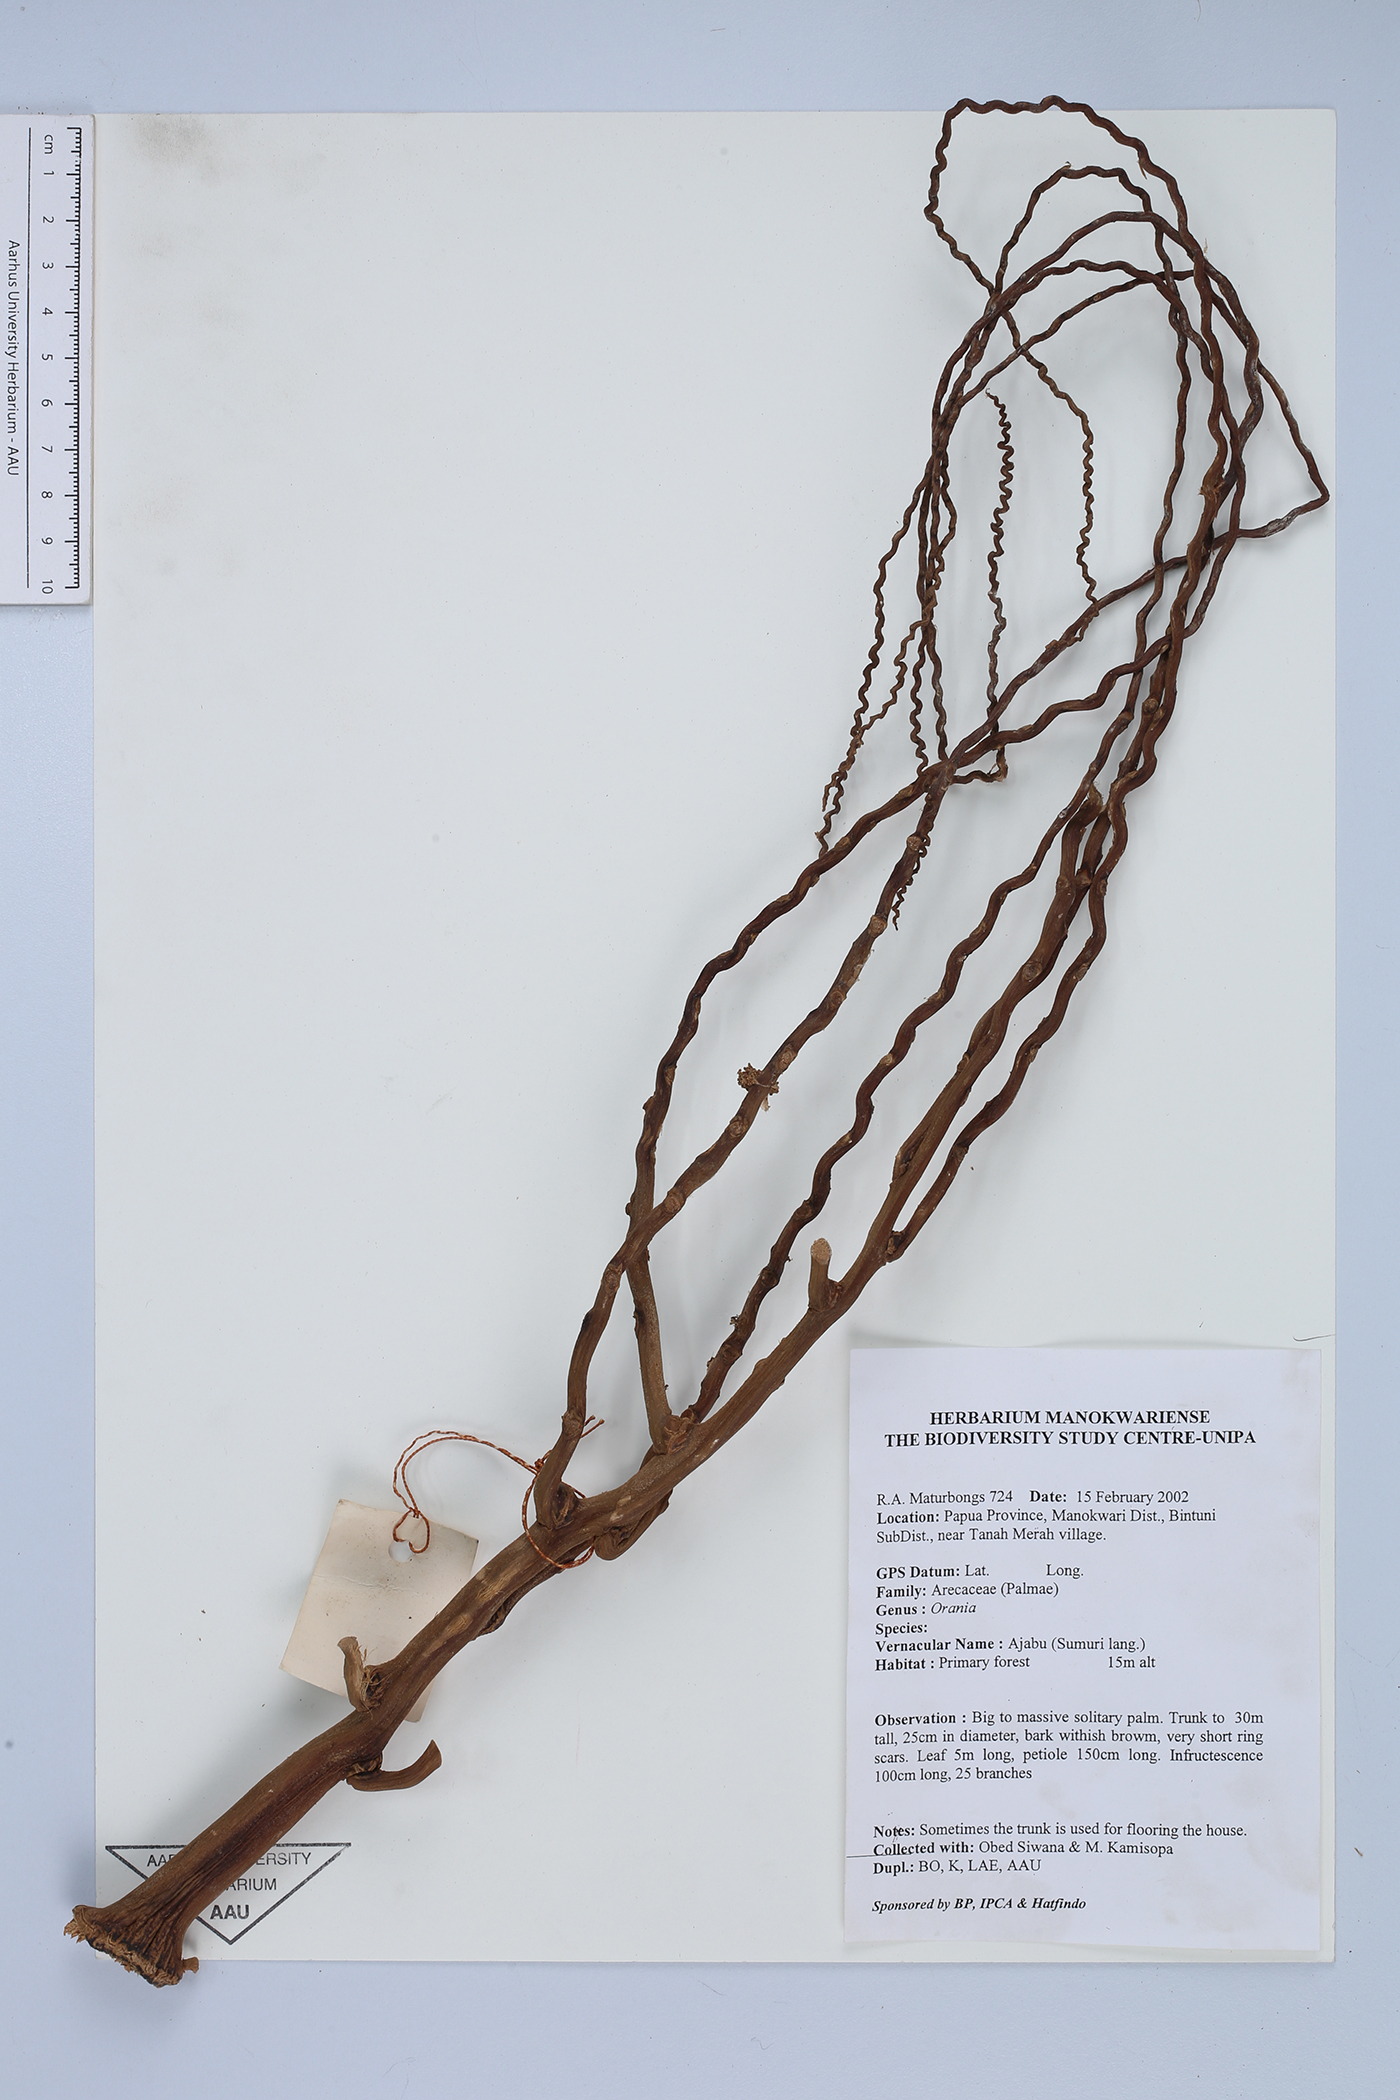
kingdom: Plantae
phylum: Tracheophyta
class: Liliopsida
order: Arecales
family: Arecaceae
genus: Orania
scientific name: Orania
